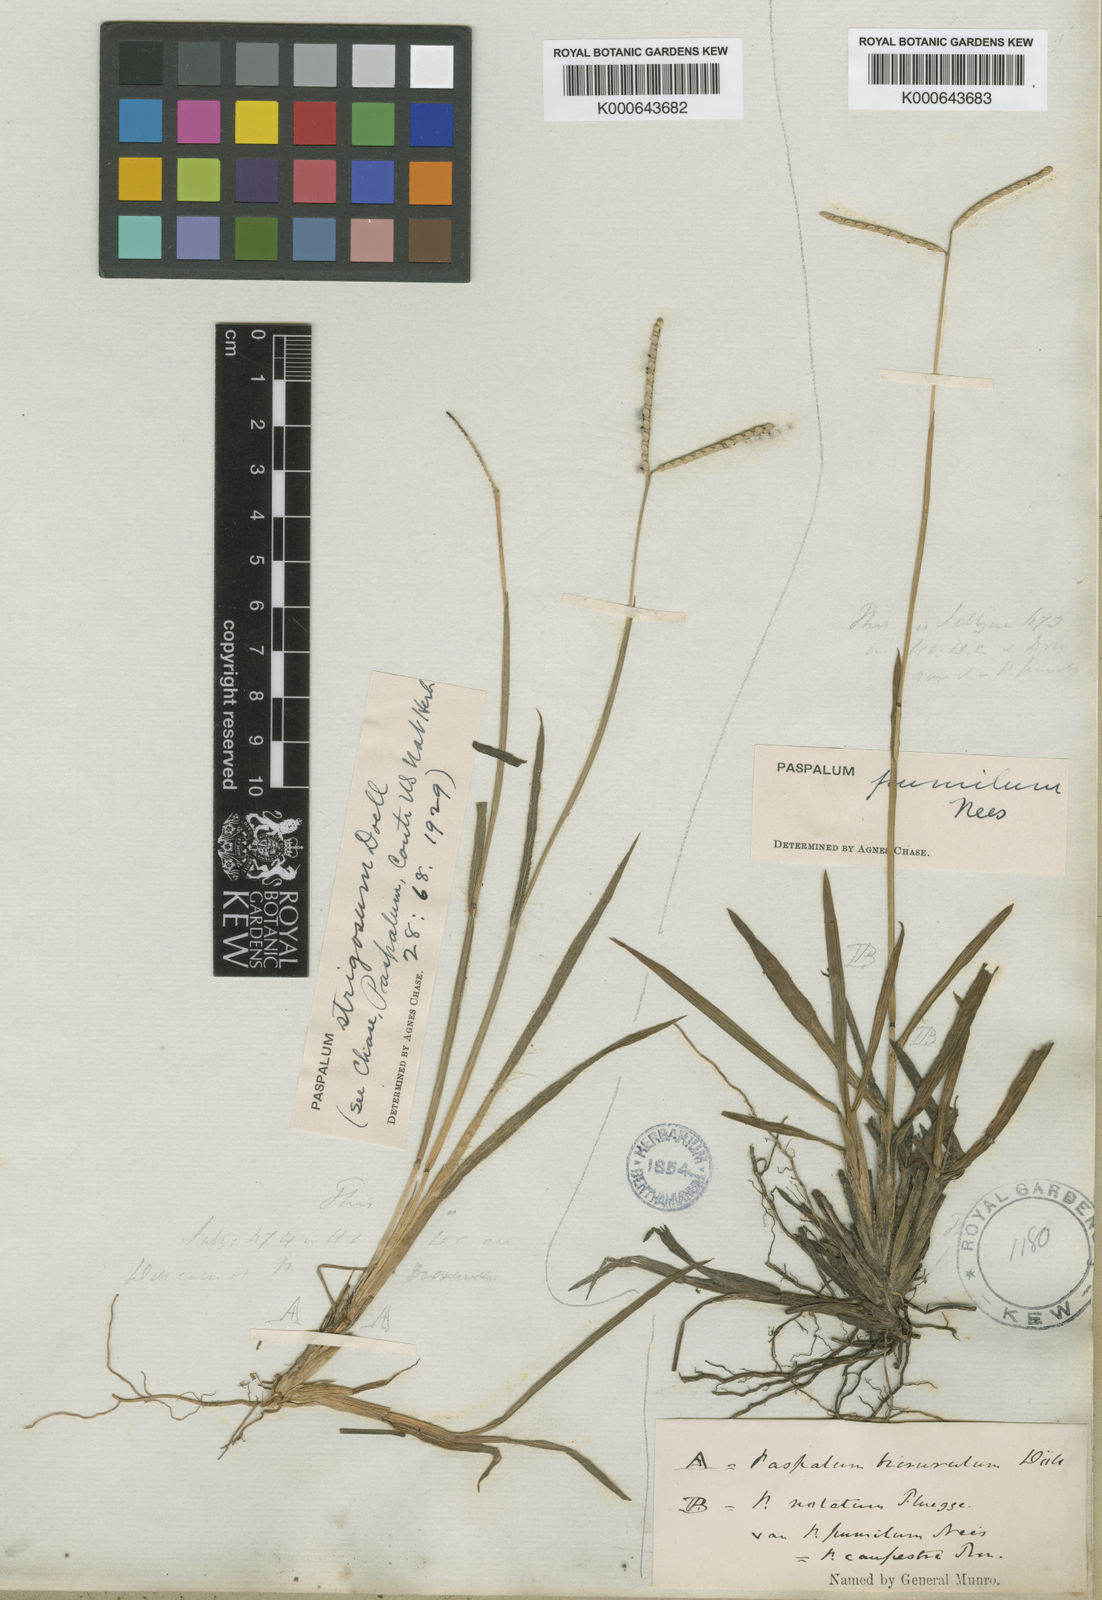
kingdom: Plantae
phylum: Tracheophyta
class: Liliopsida
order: Poales
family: Poaceae
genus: Paspalum
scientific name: Paspalum
